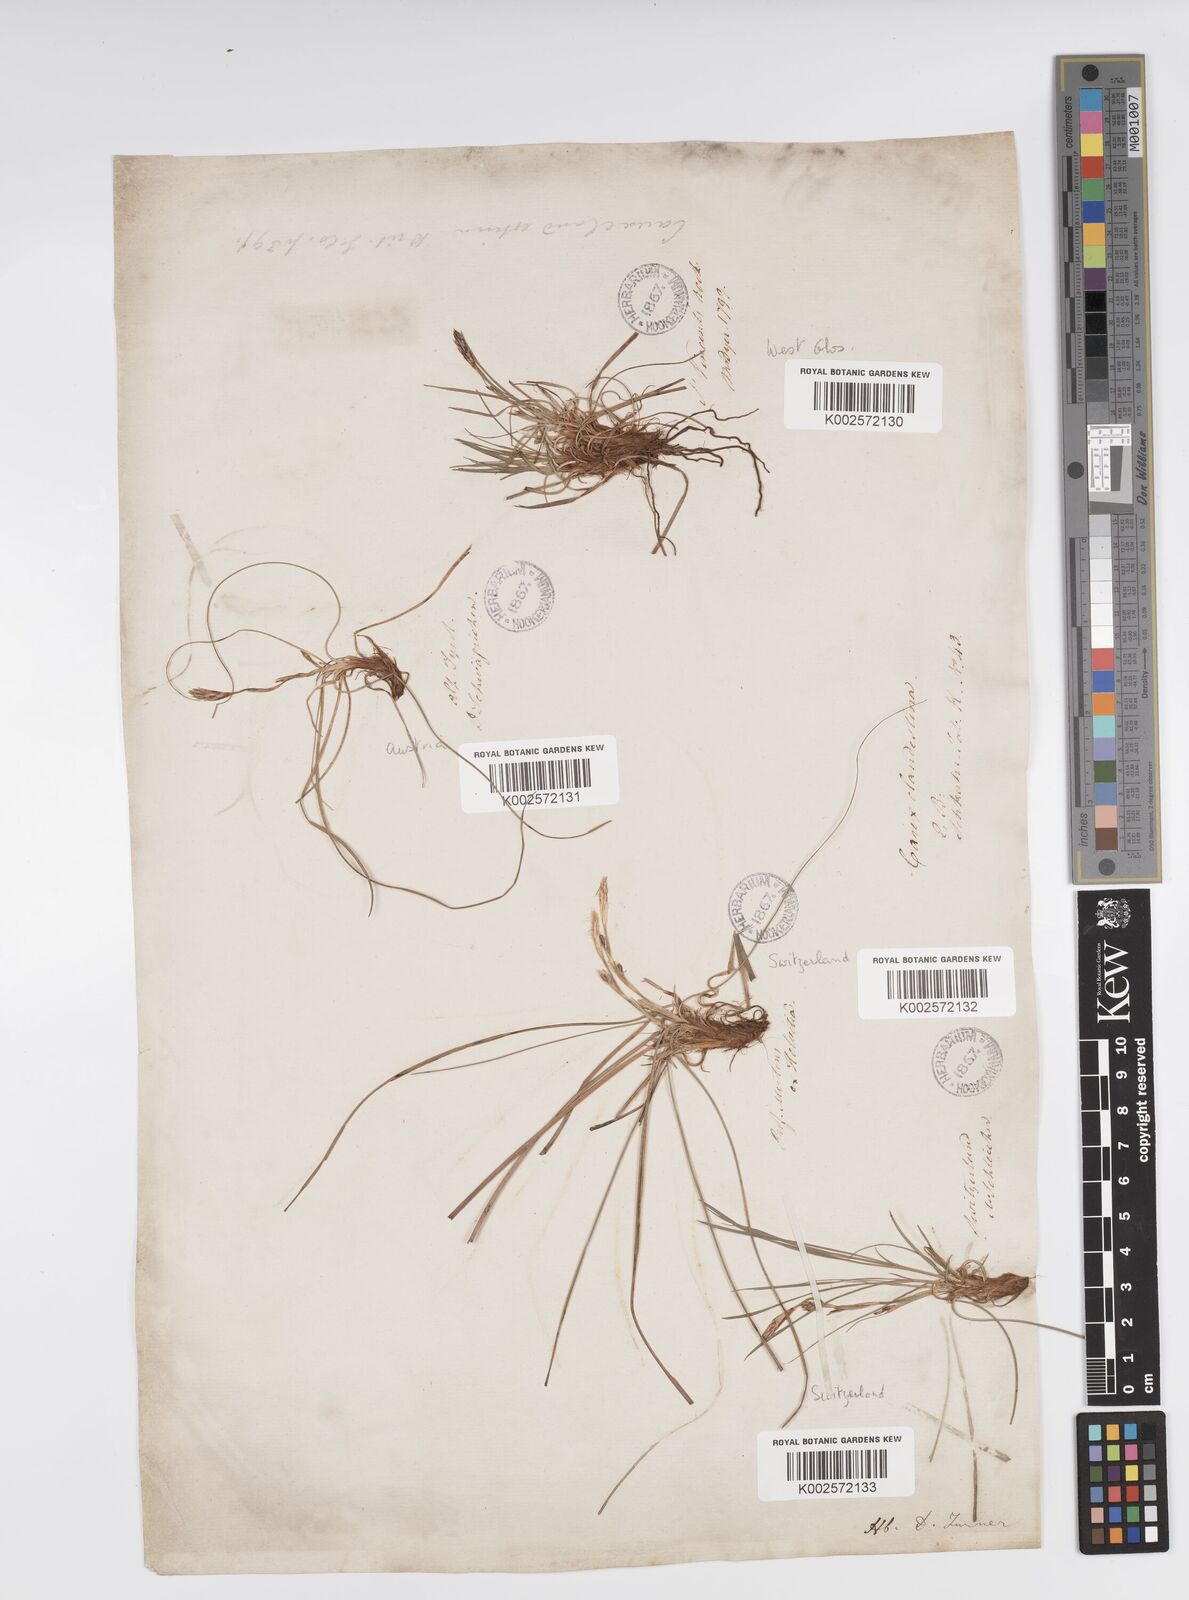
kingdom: Plantae
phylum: Tracheophyta
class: Liliopsida
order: Poales
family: Cyperaceae
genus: Carex
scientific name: Carex humilis
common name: Dwarf sedge
